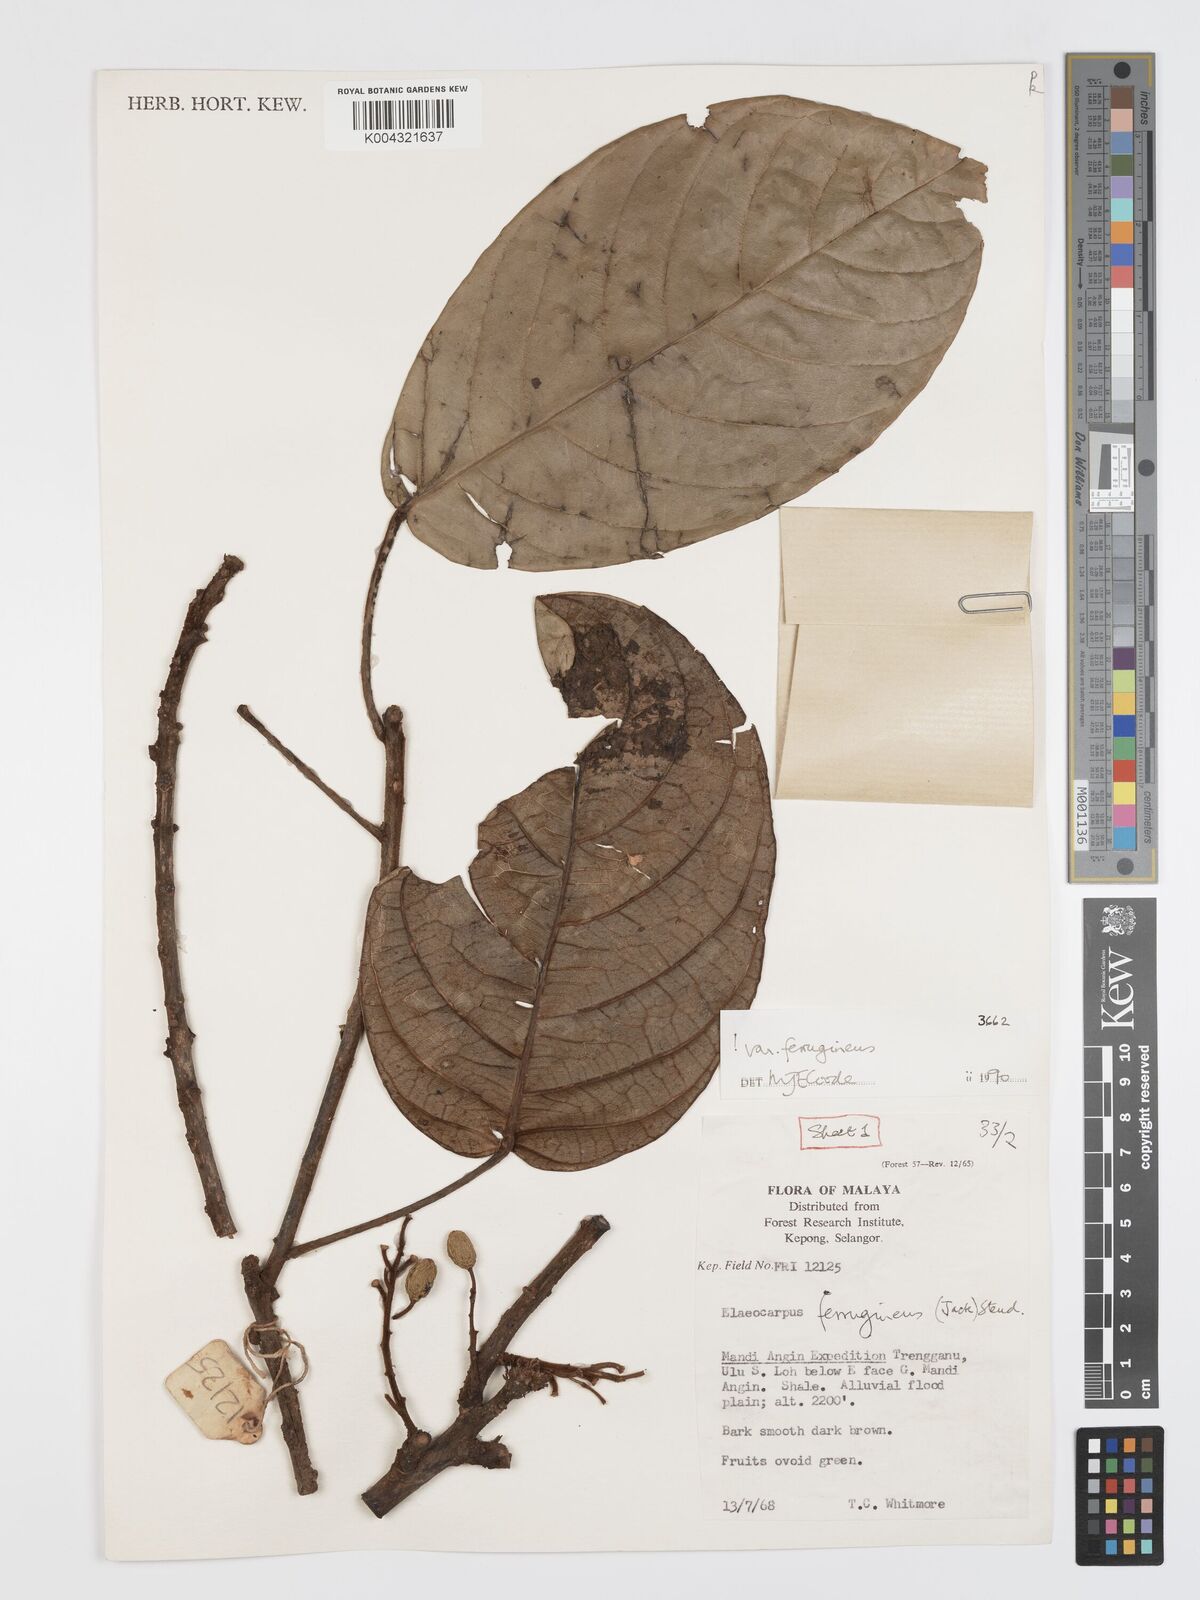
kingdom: Plantae
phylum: Tracheophyta
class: Magnoliopsida
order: Oxalidales
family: Elaeocarpaceae
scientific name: Elaeocarpaceae
